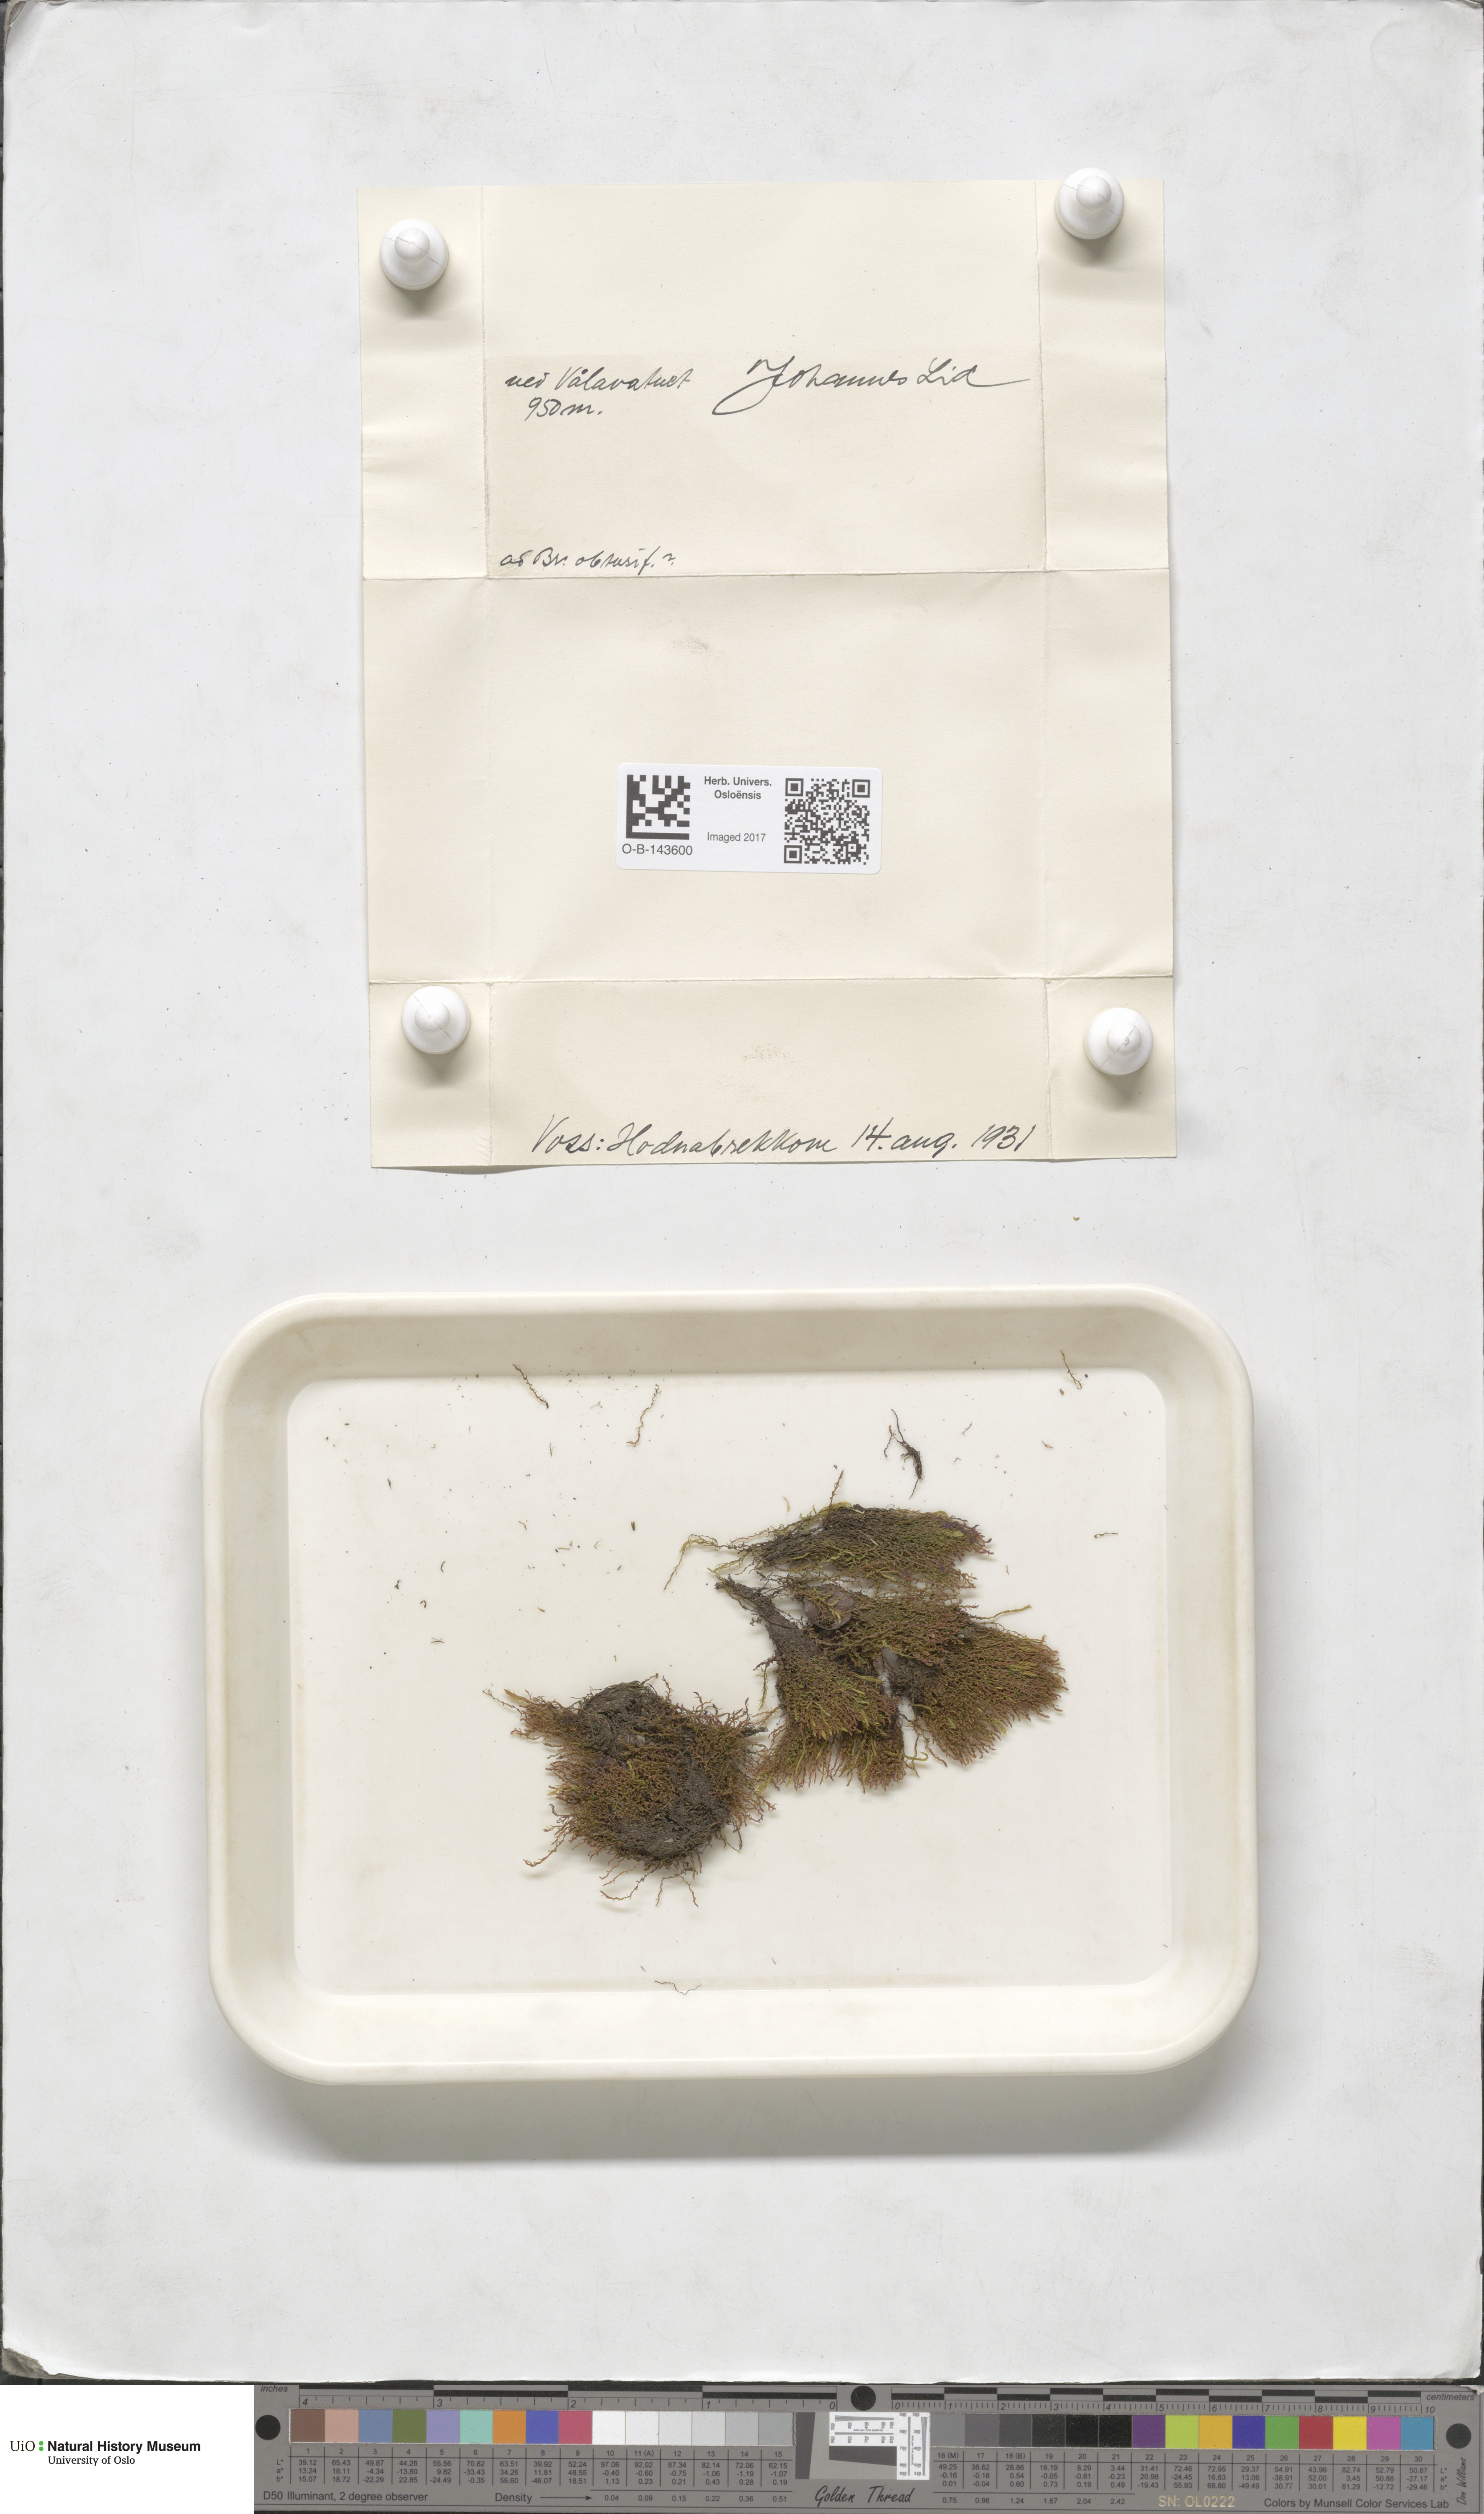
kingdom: Plantae
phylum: Bryophyta
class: Bryopsida
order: Bryales
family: Bryaceae
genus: Bryum
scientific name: Bryum
